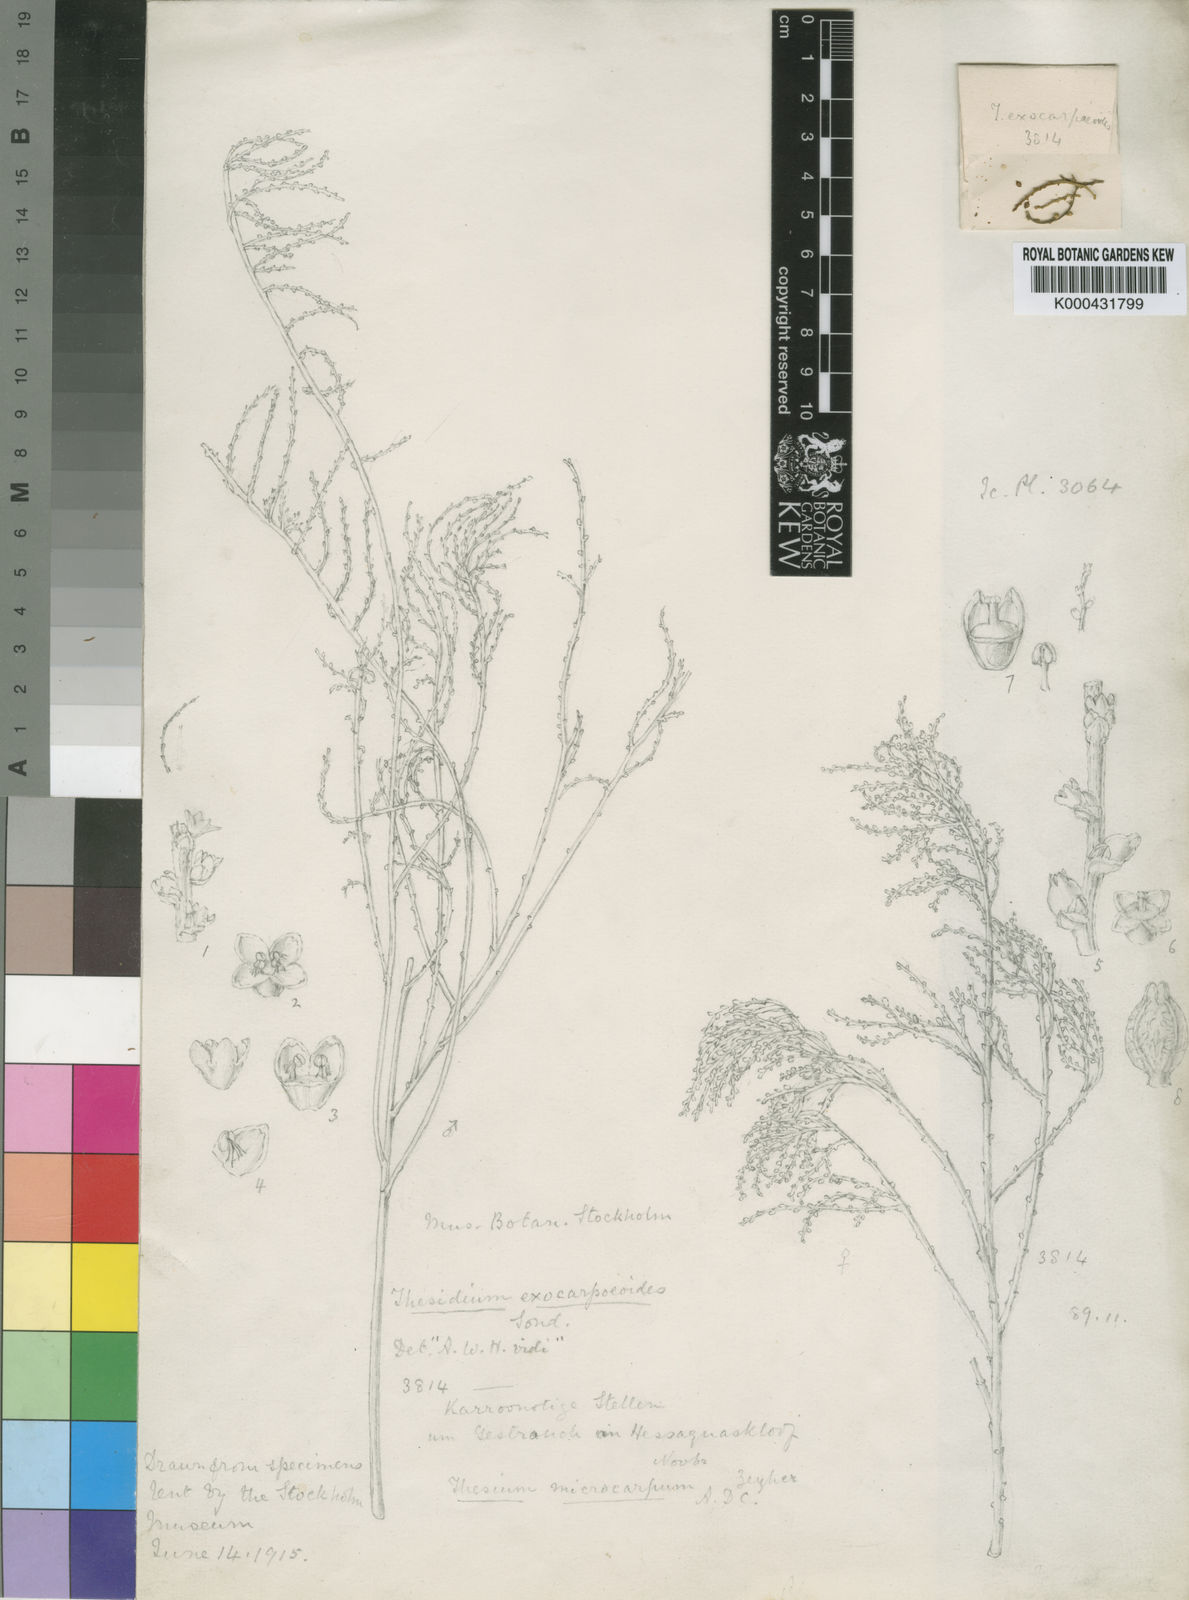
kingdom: Plantae
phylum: Tracheophyta
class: Magnoliopsida
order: Santalales
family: Thesiaceae
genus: Thesium
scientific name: Thesium confusum
